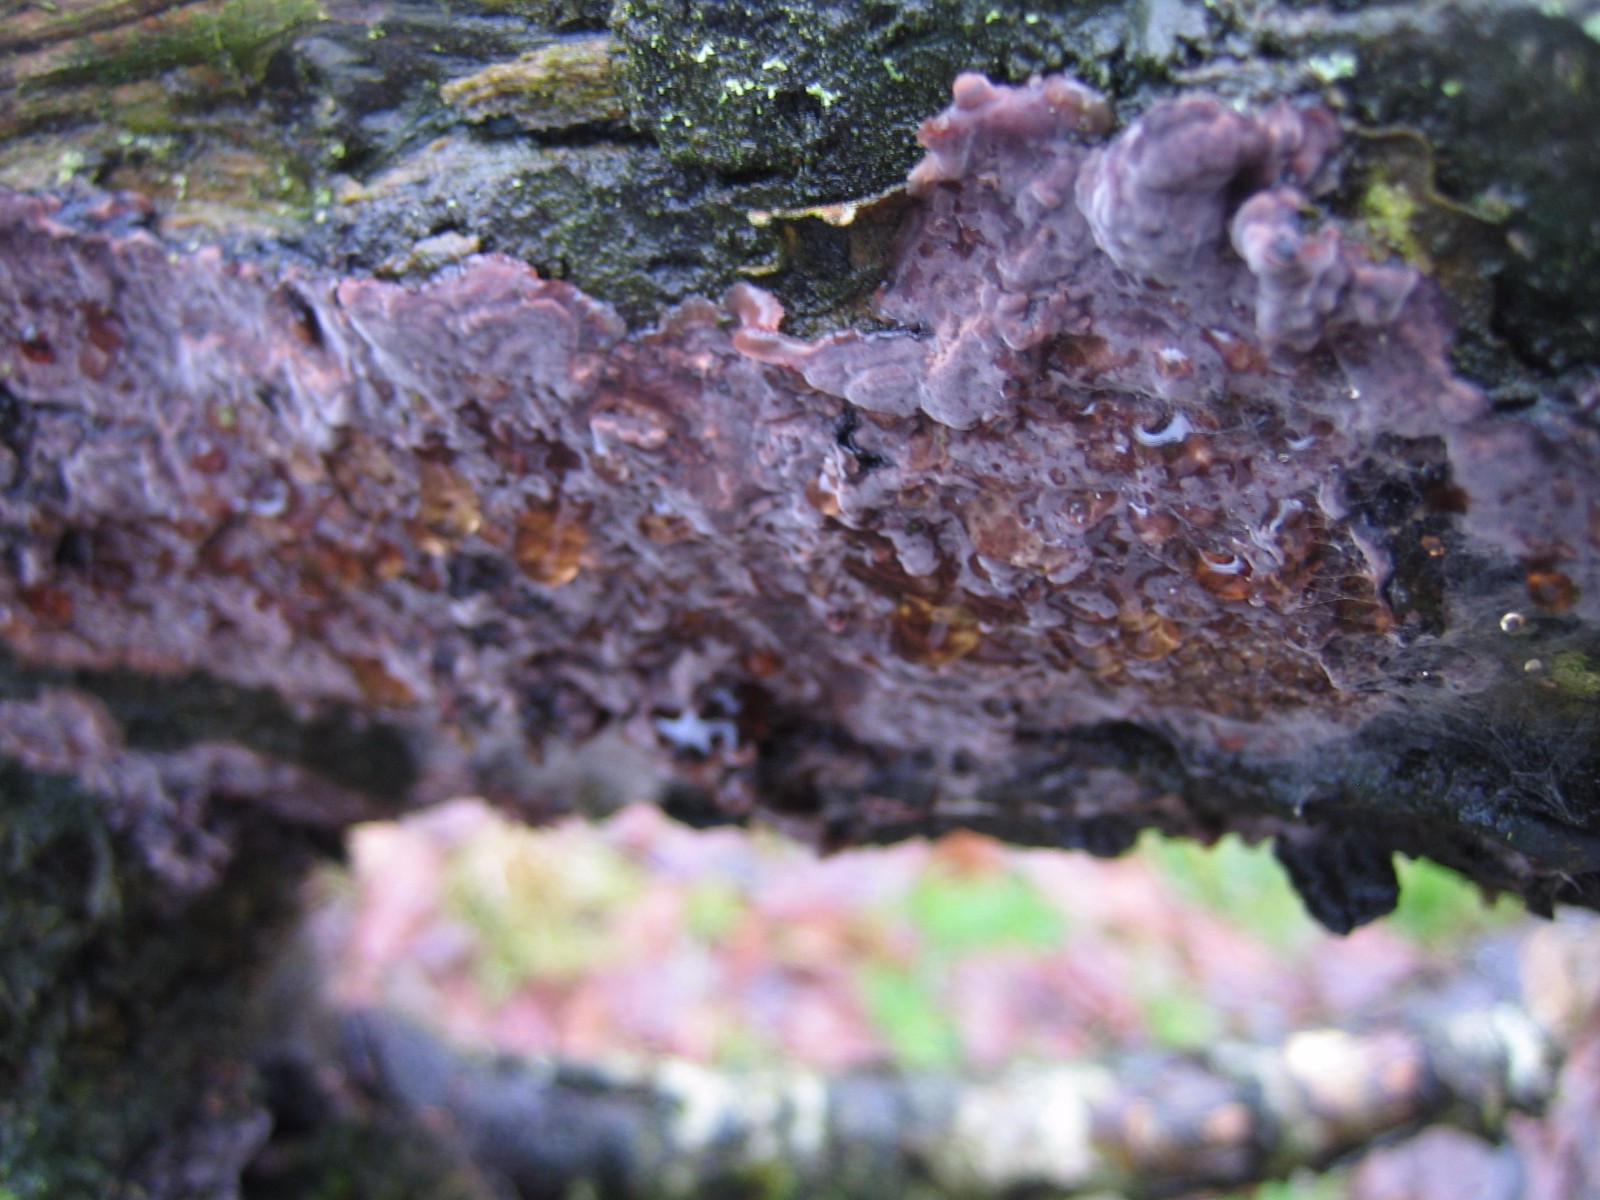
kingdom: Fungi
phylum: Basidiomycota
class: Agaricomycetes
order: Russulales
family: Peniophoraceae
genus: Peniophora
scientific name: Peniophora quercina
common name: ege-voksskind
